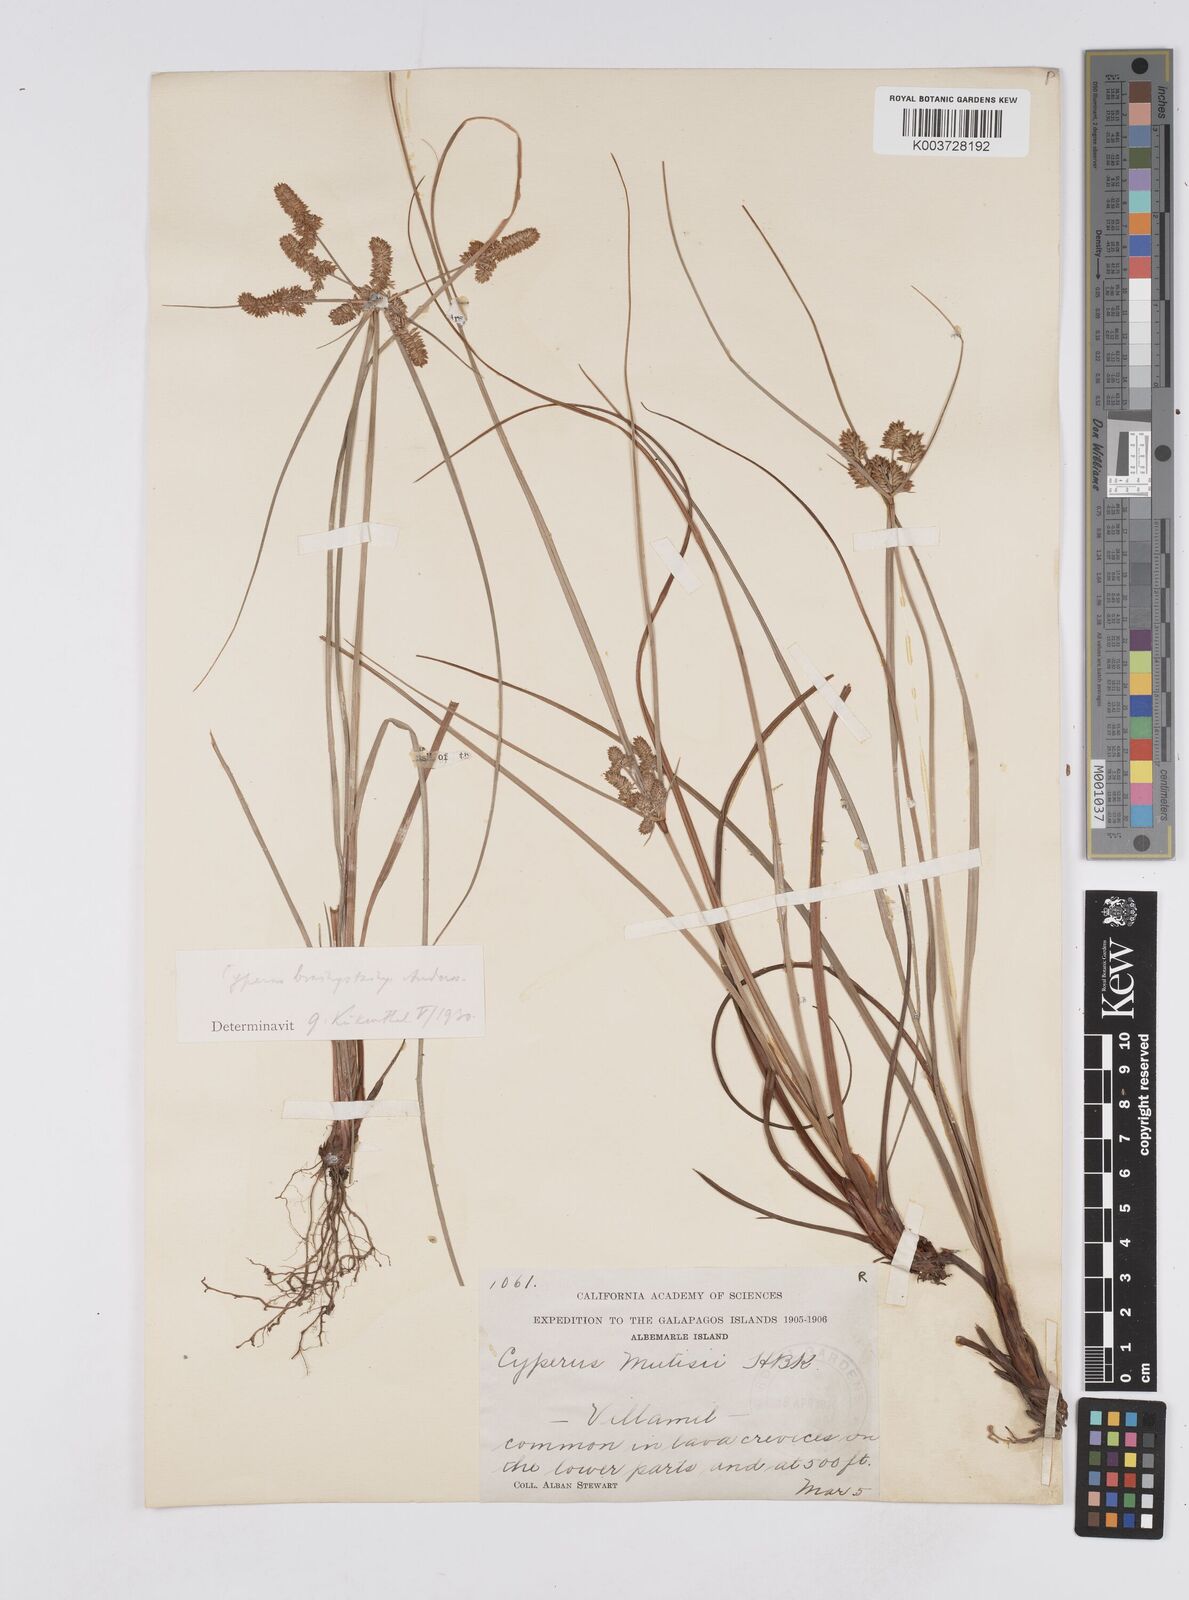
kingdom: Plantae
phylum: Tracheophyta
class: Liliopsida
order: Poales
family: Cyperaceae
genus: Cyperus
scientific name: Cyperus anderssonii
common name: Andersson's sedge
